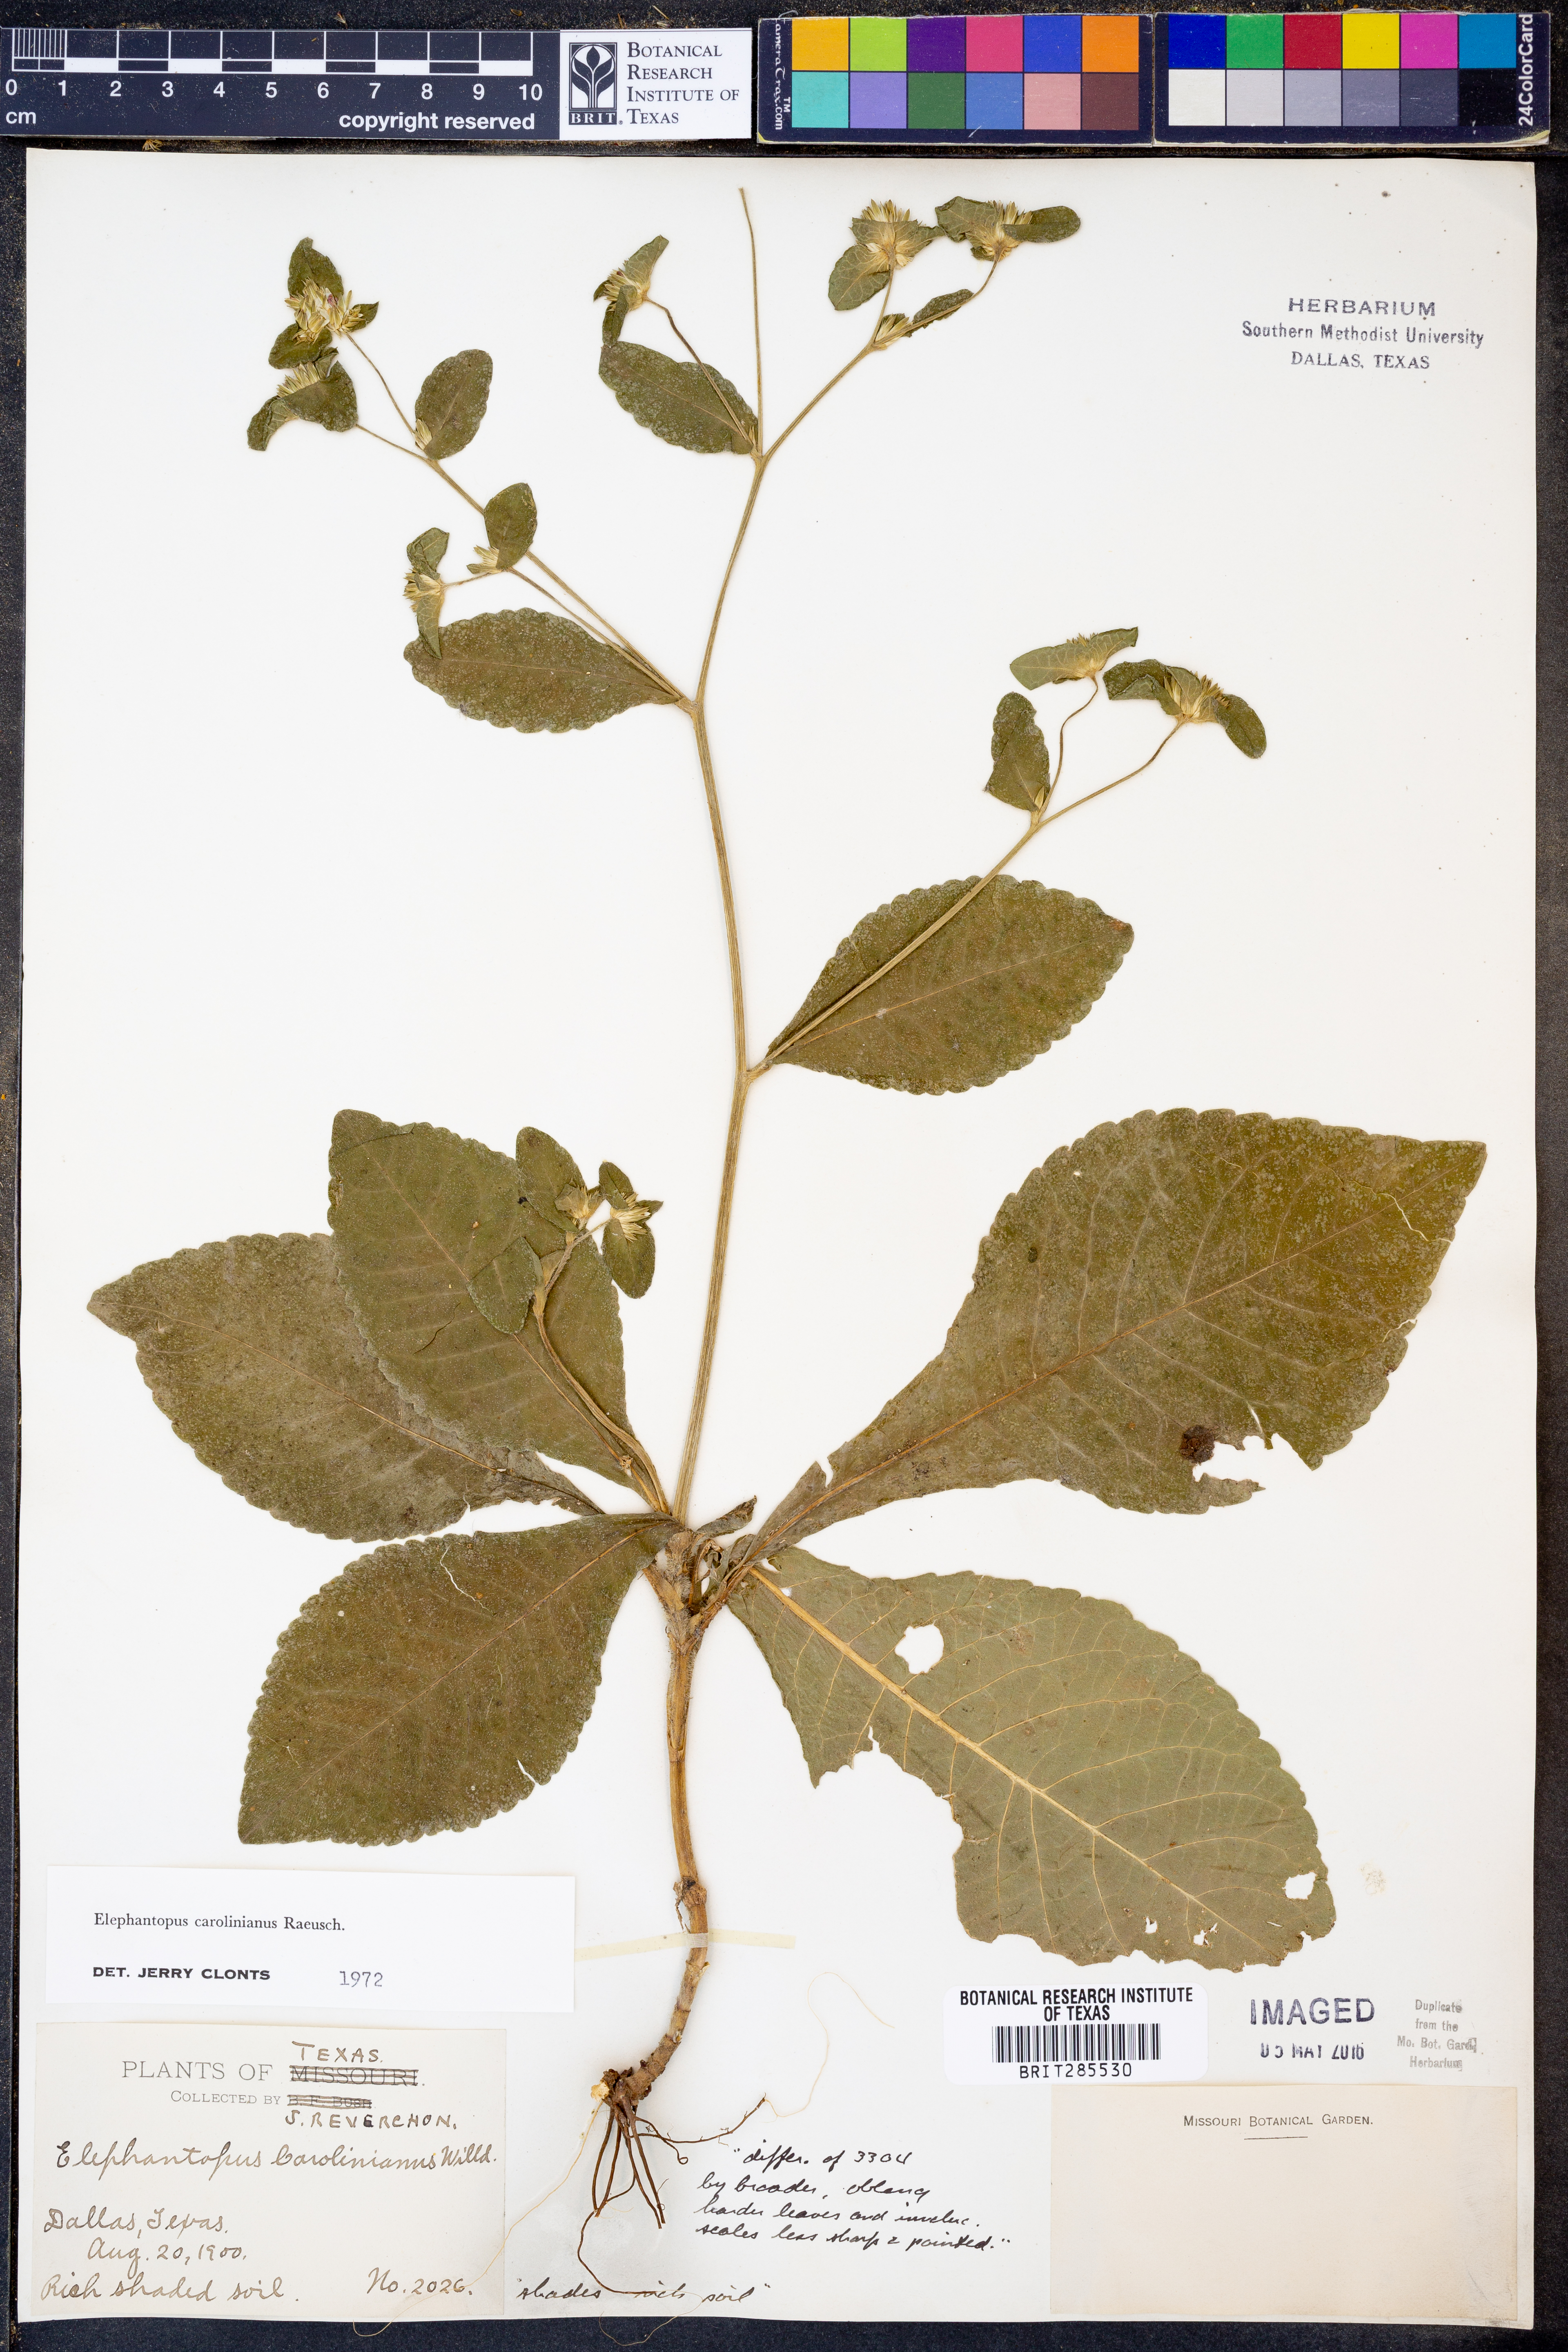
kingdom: Plantae
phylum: Tracheophyta
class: Magnoliopsida
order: Asterales
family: Asteraceae
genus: Elephantopus
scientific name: Elephantopus carolinianus
